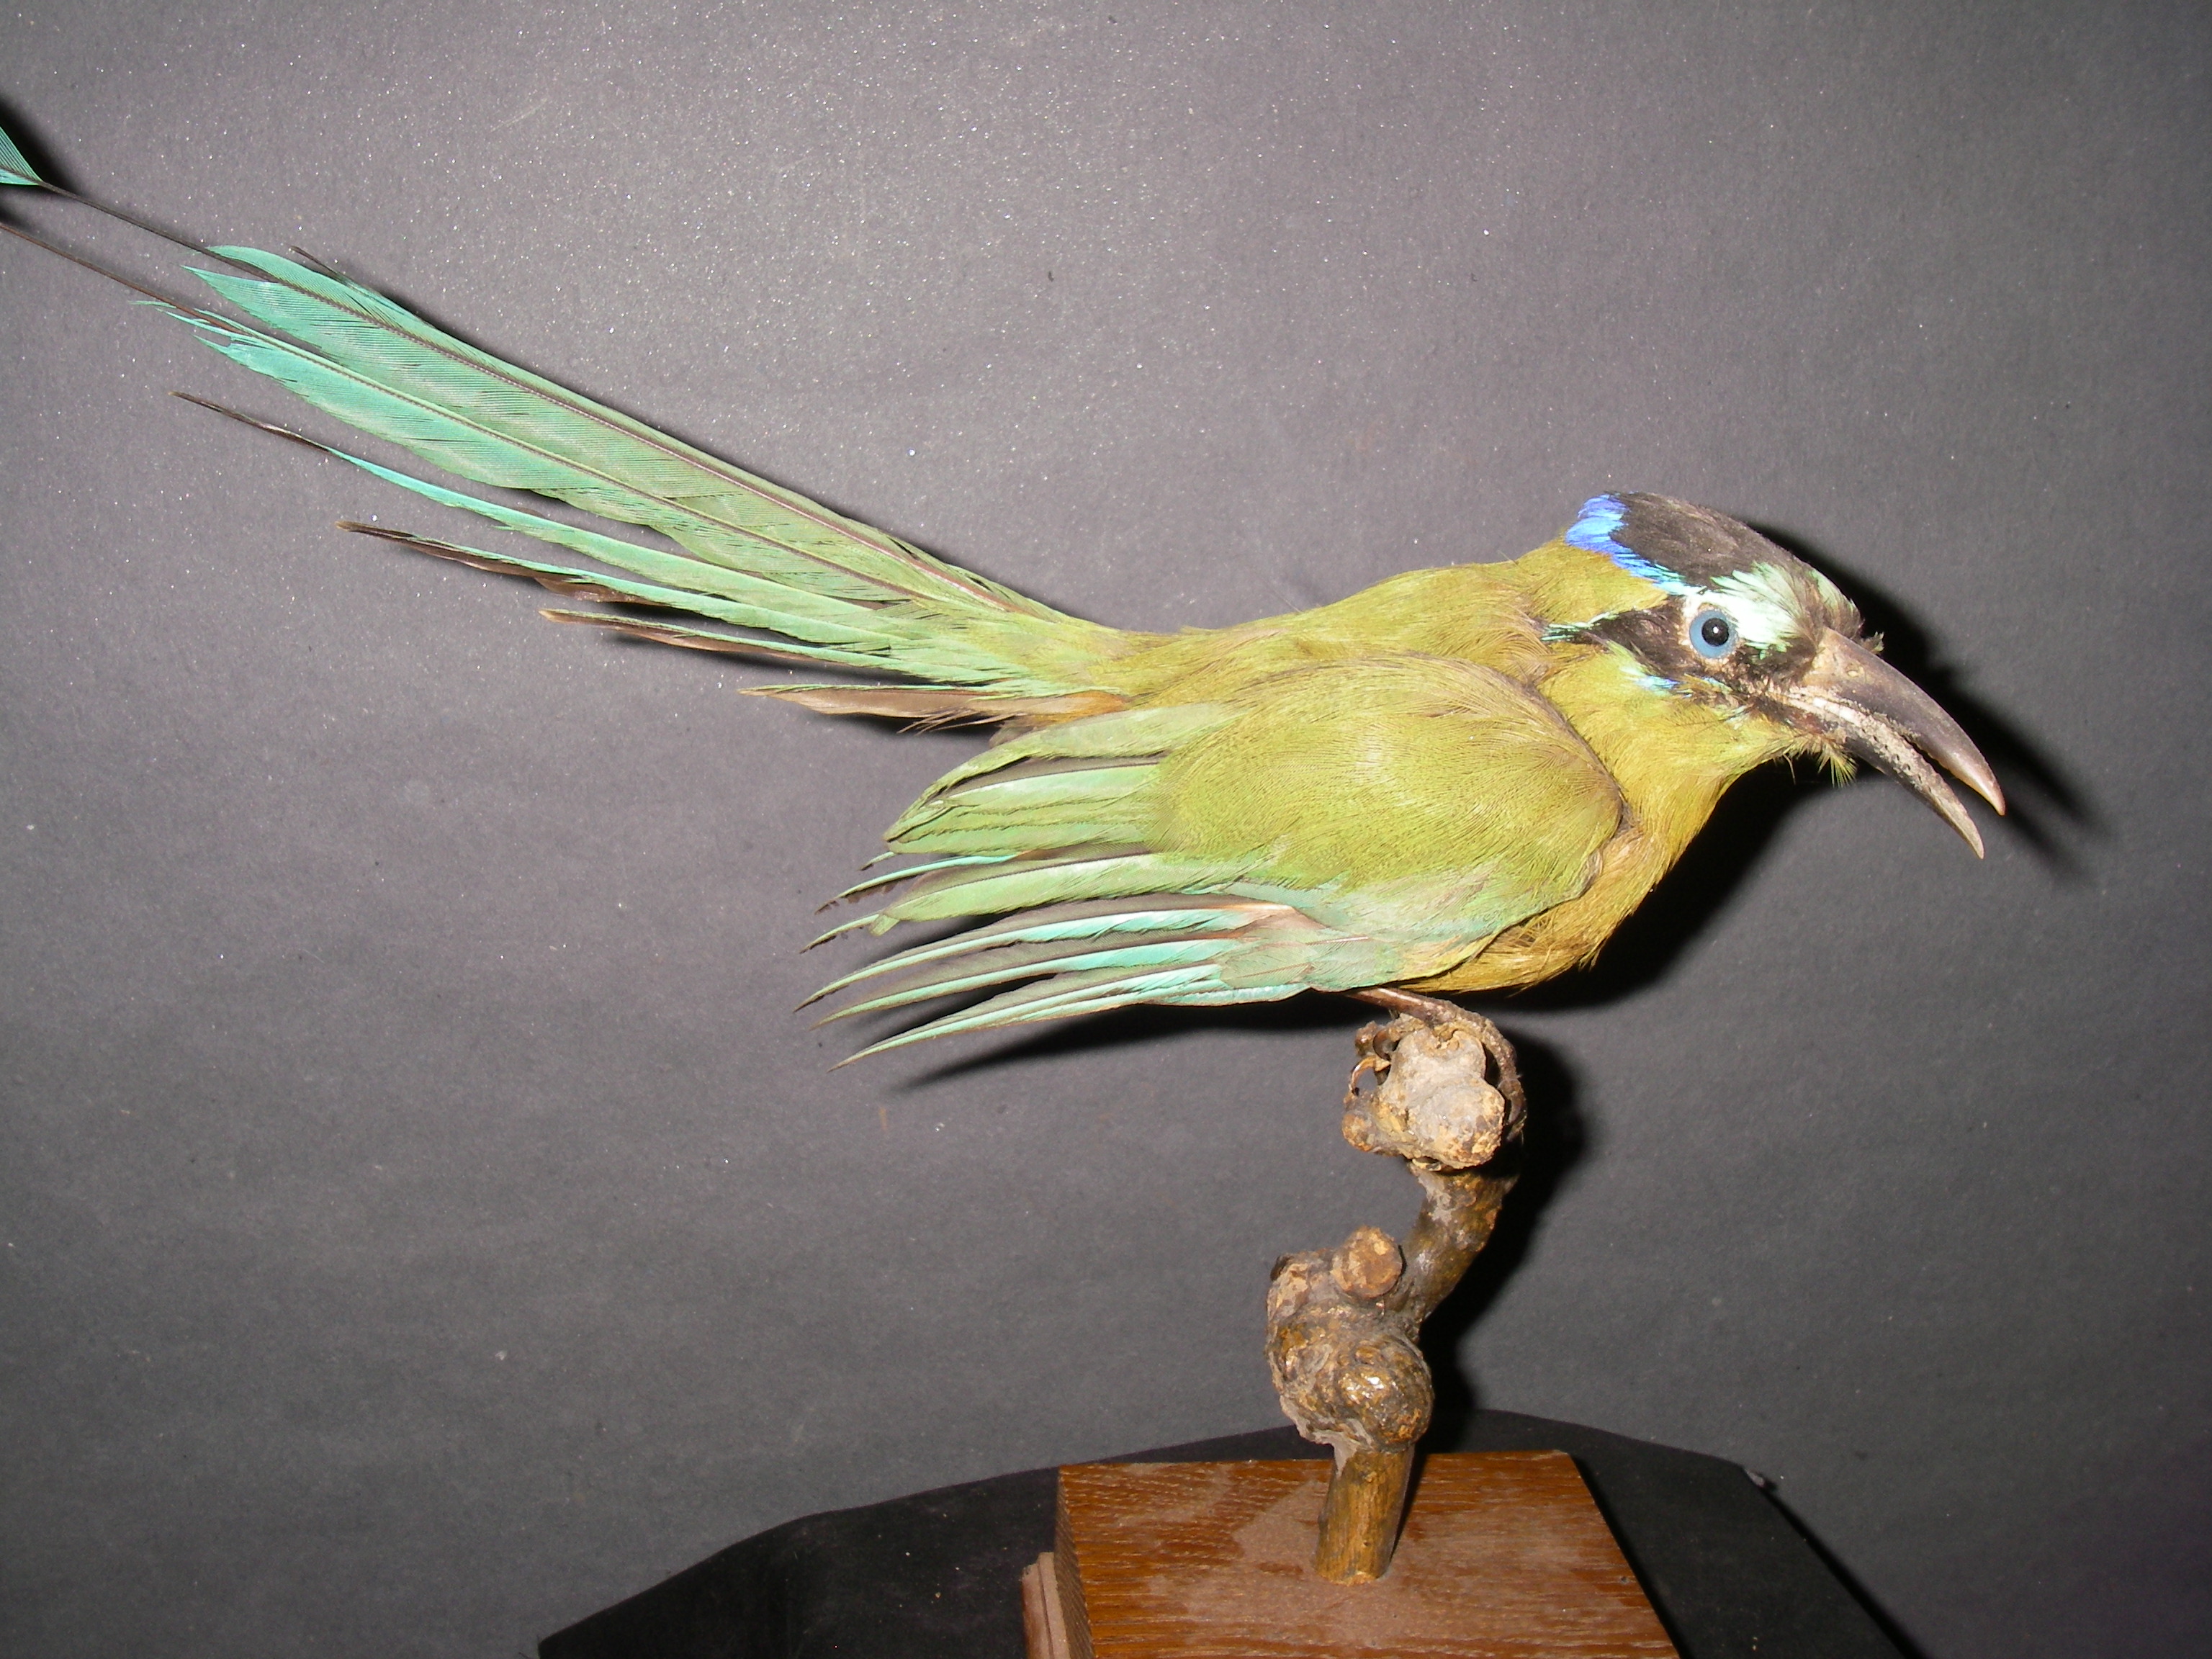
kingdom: Animalia
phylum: Chordata
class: Aves
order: Coraciiformes
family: Momotidae
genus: Momotus
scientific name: Momotus momota
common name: Amazonian motmot
